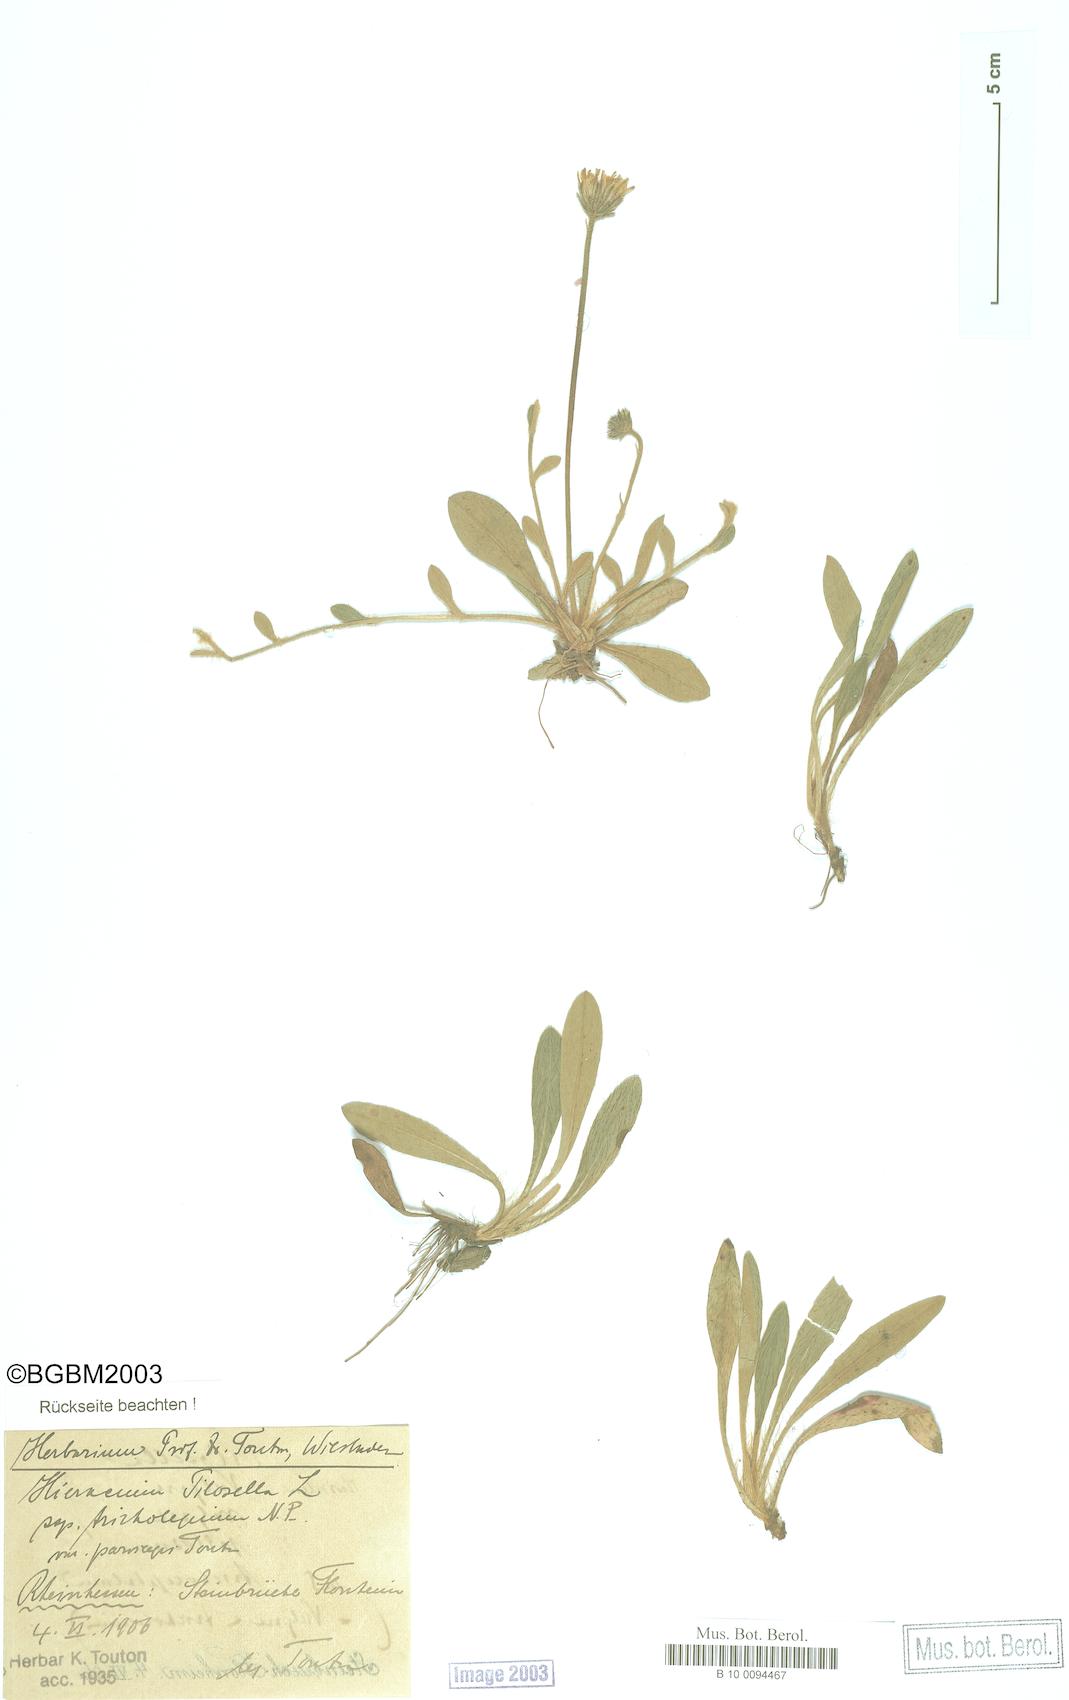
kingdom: Plantae
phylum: Tracheophyta
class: Magnoliopsida
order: Asterales
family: Asteraceae
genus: Pilosella
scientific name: Pilosella officinarum
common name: Mouse-ear hawkweed
